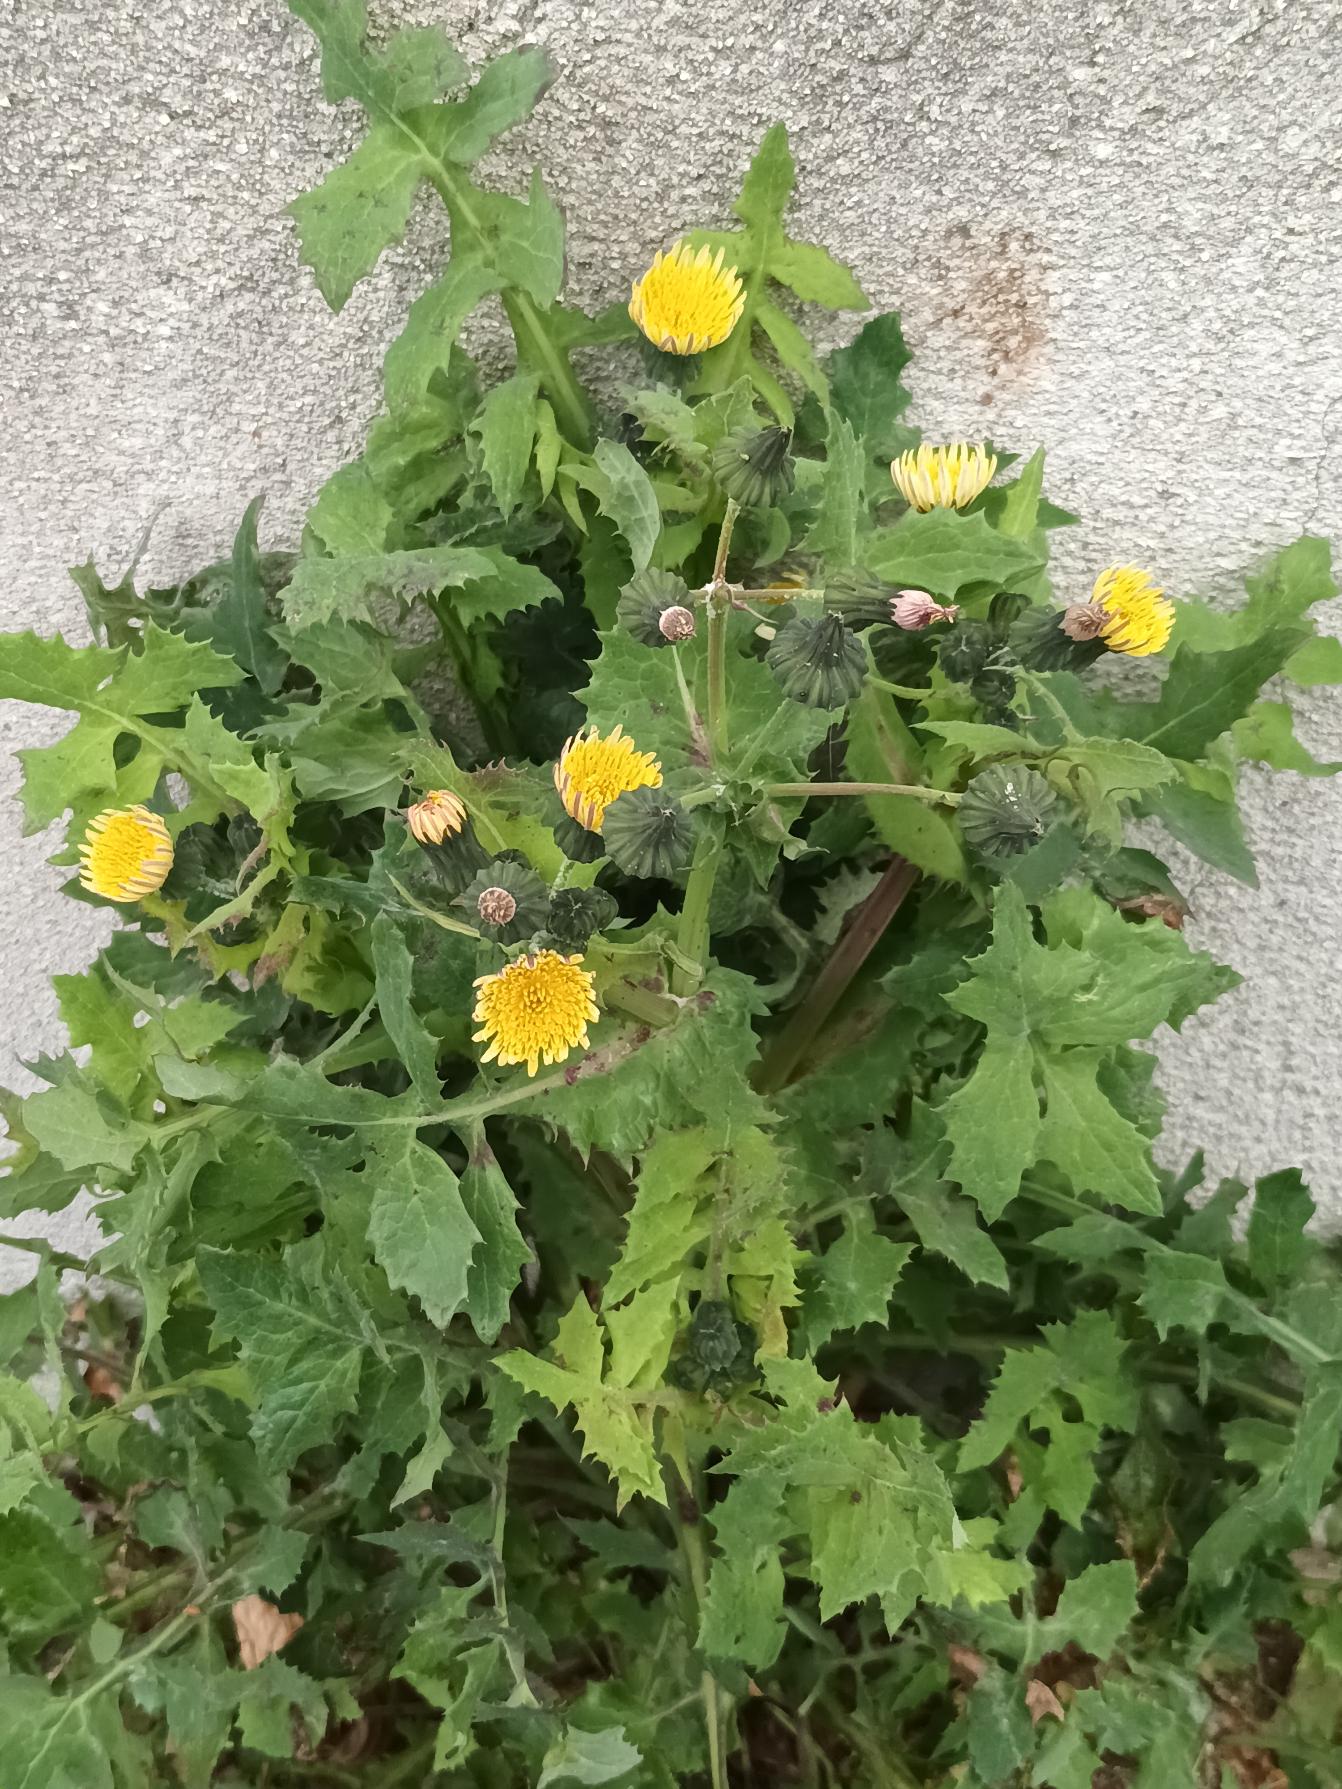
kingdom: Plantae
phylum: Tracheophyta
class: Magnoliopsida
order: Asterales
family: Asteraceae
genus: Sonchus
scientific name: Sonchus oleraceus
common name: Almindelig svinemælk
